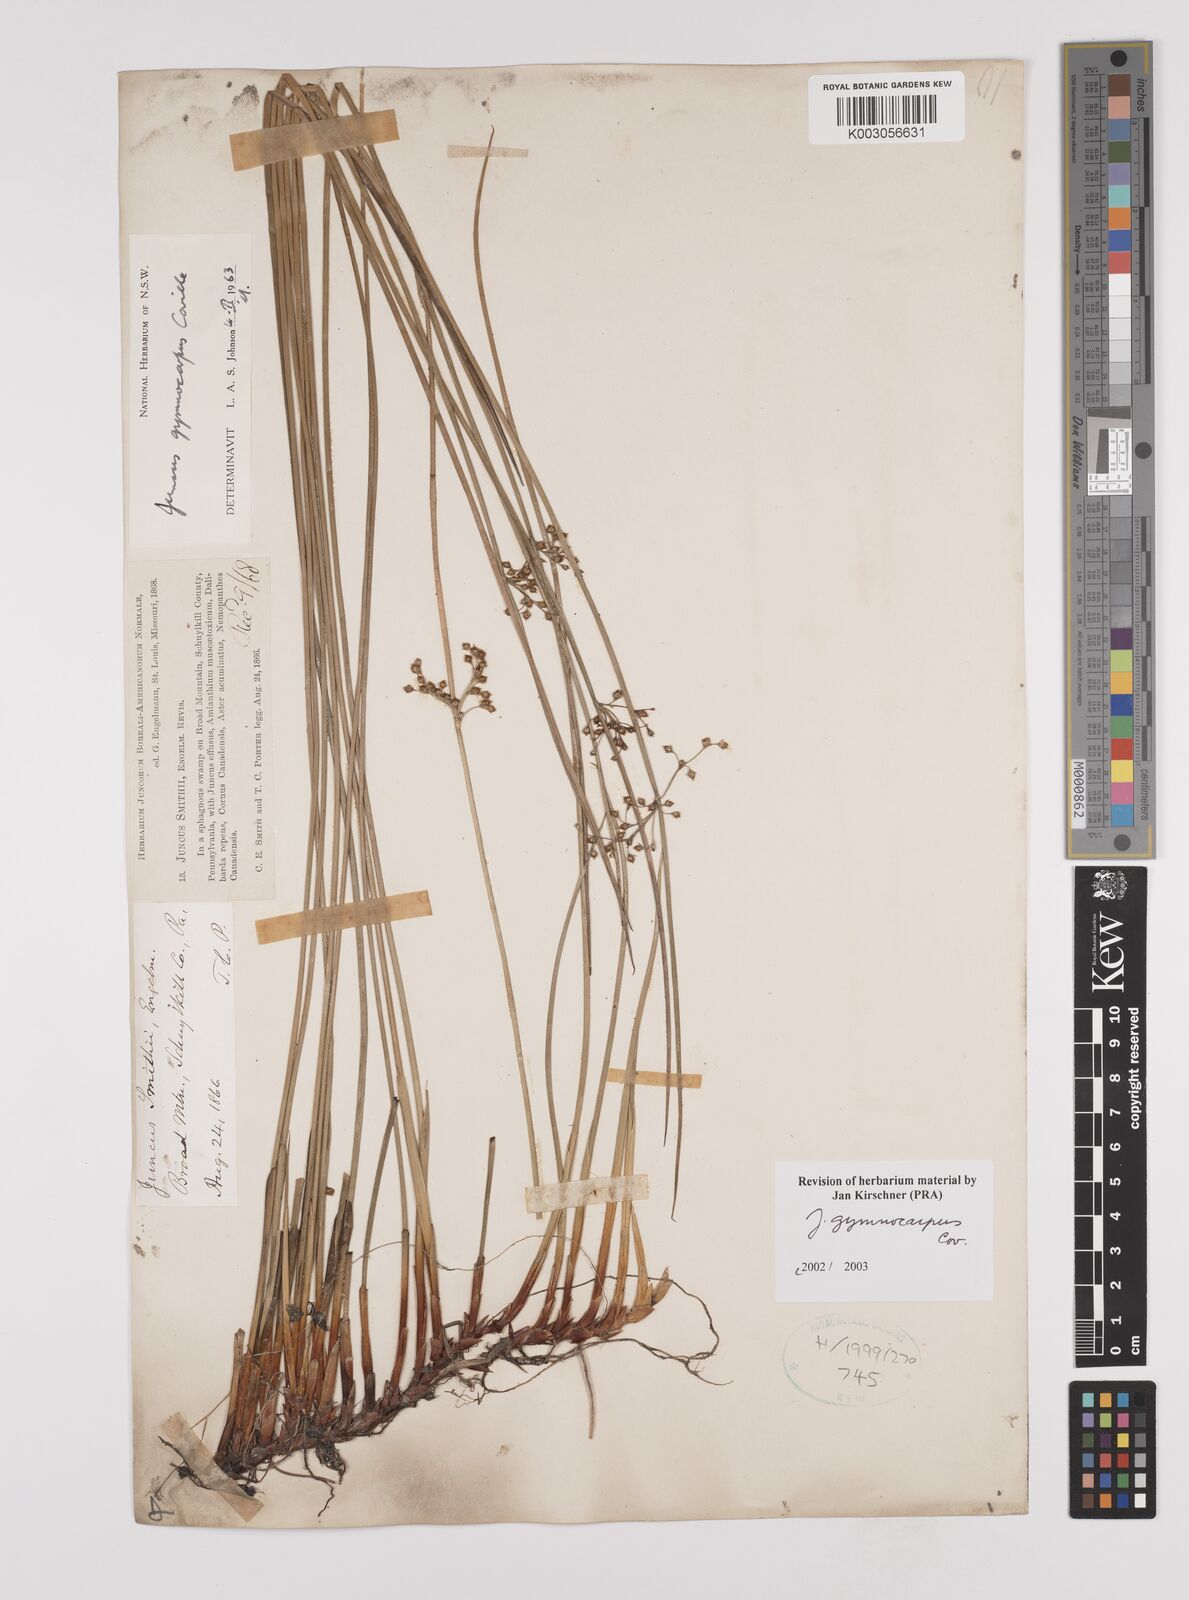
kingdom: Plantae
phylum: Tracheophyta
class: Liliopsida
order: Poales
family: Juncaceae
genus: Juncus
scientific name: Juncus gymnocarpus
